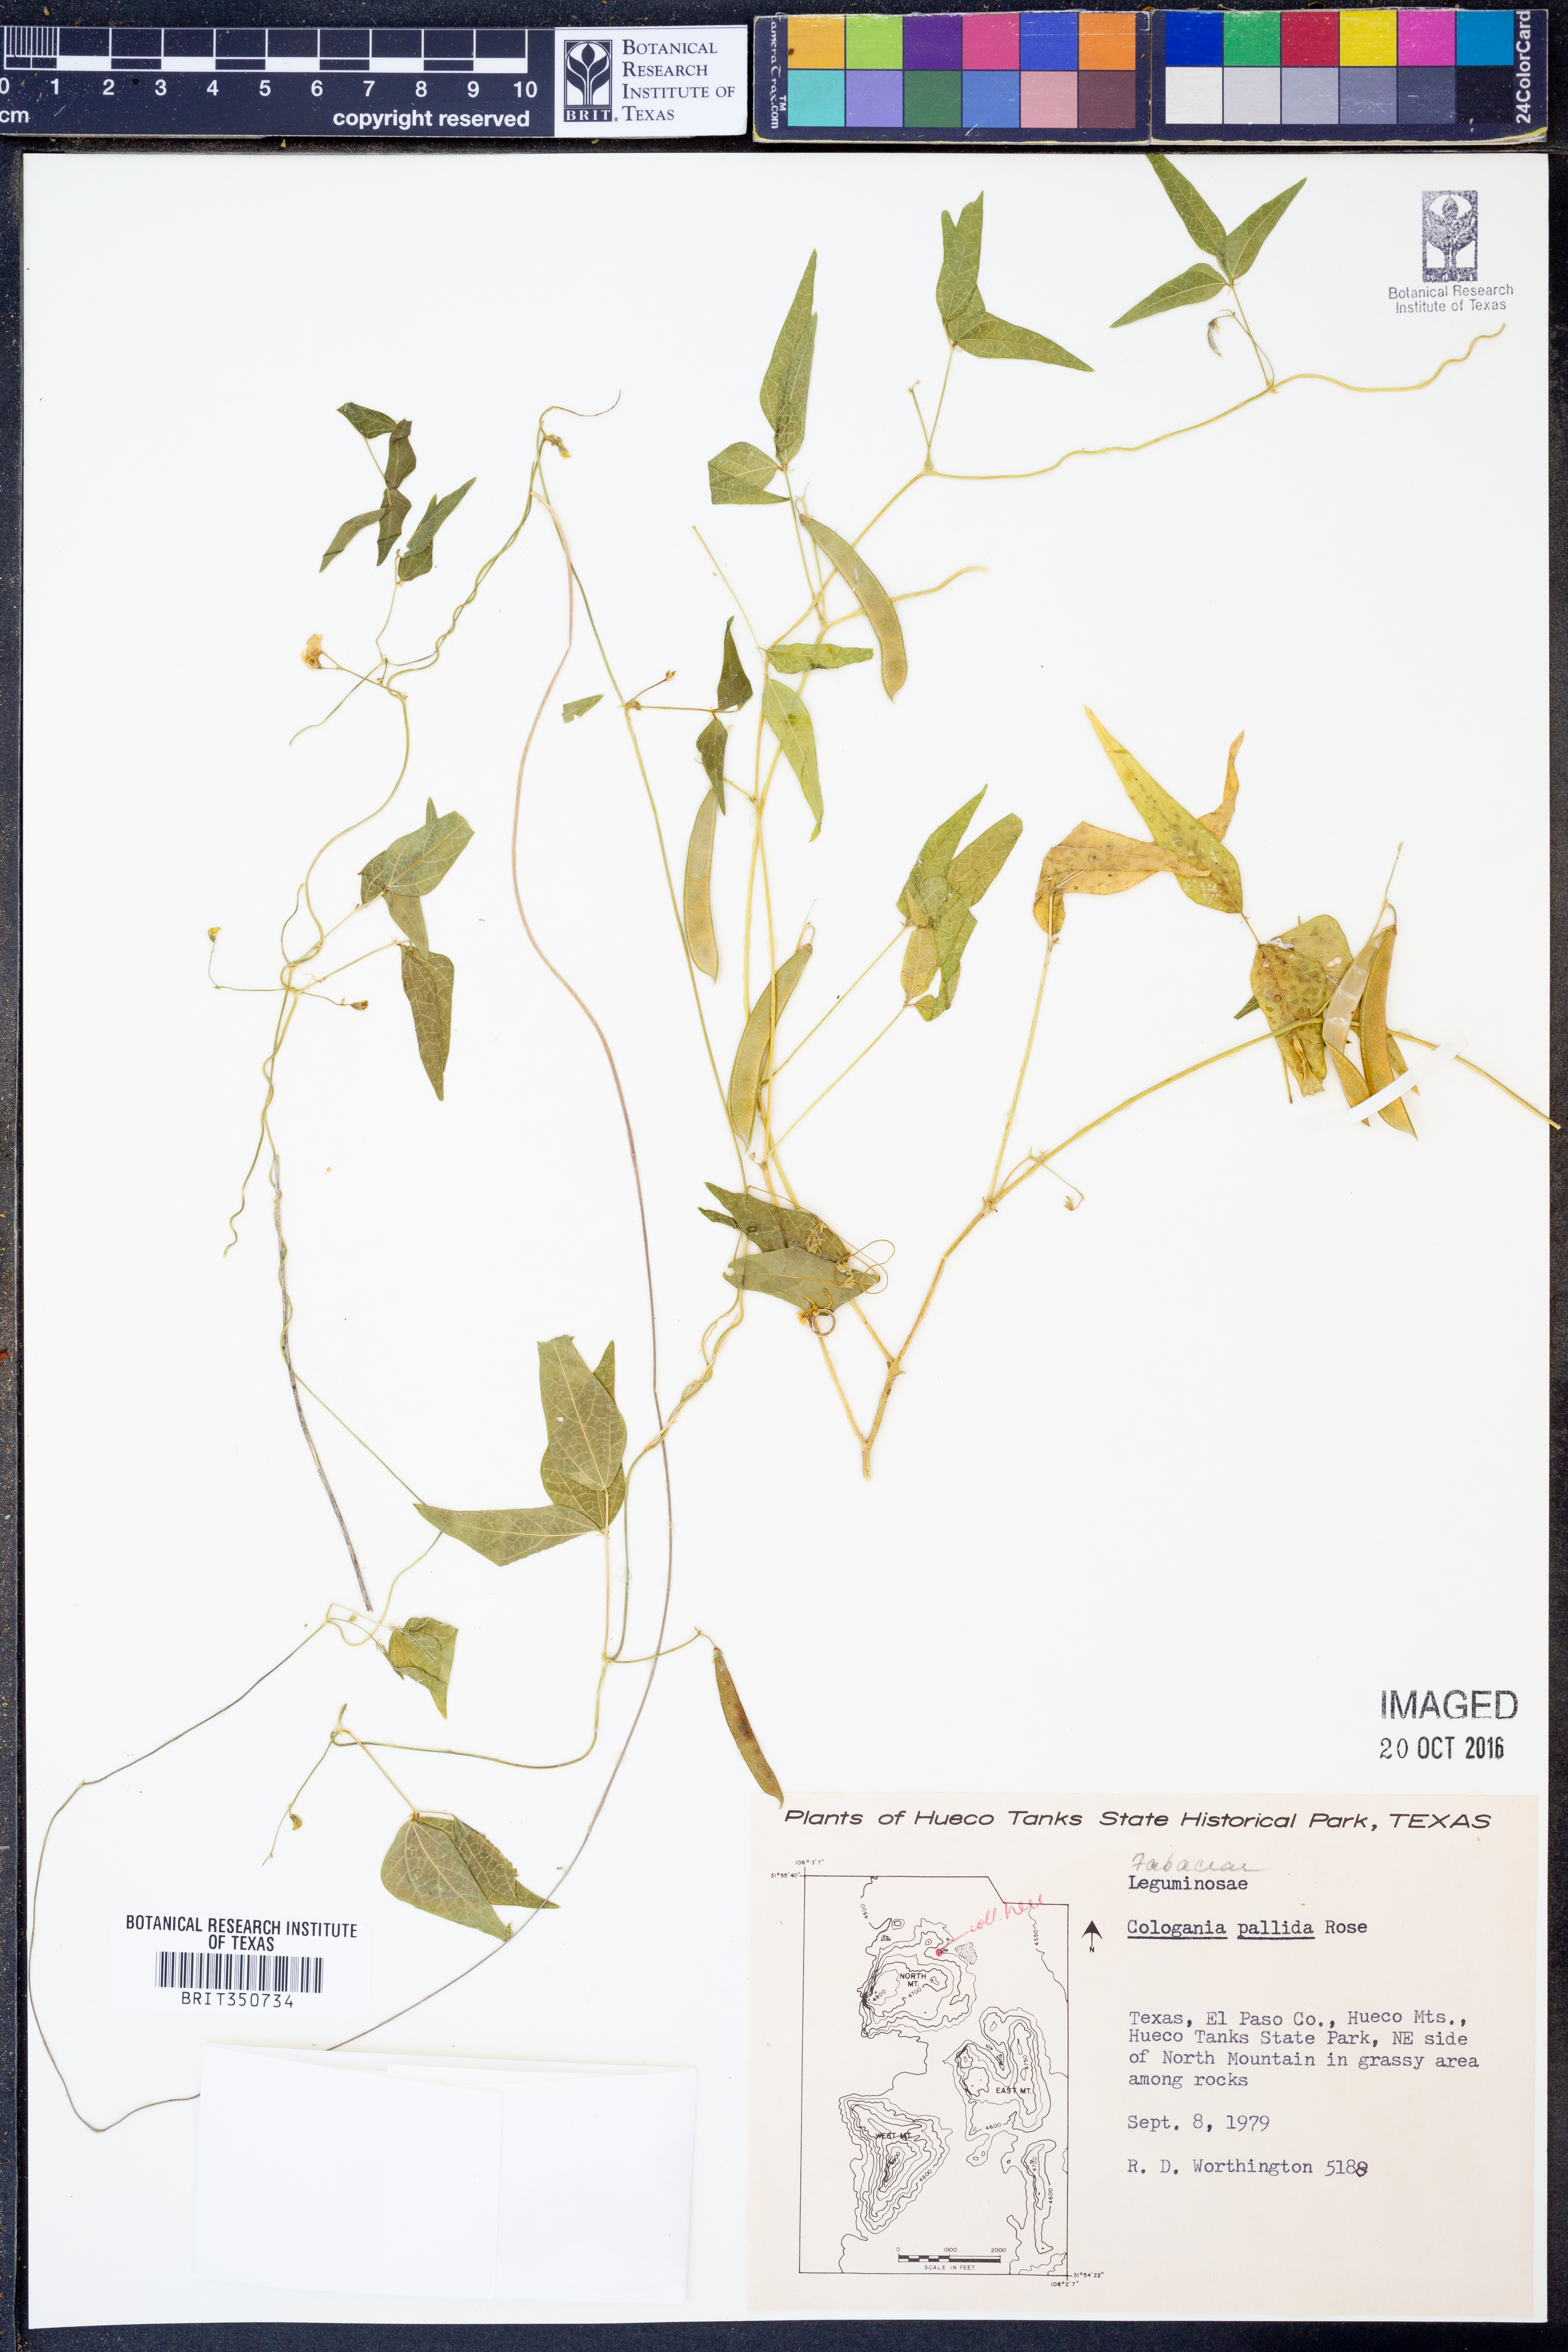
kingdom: Plantae
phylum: Tracheophyta
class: Magnoliopsida
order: Fabales
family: Fabaceae
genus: Cologania
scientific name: Cologania pallida
